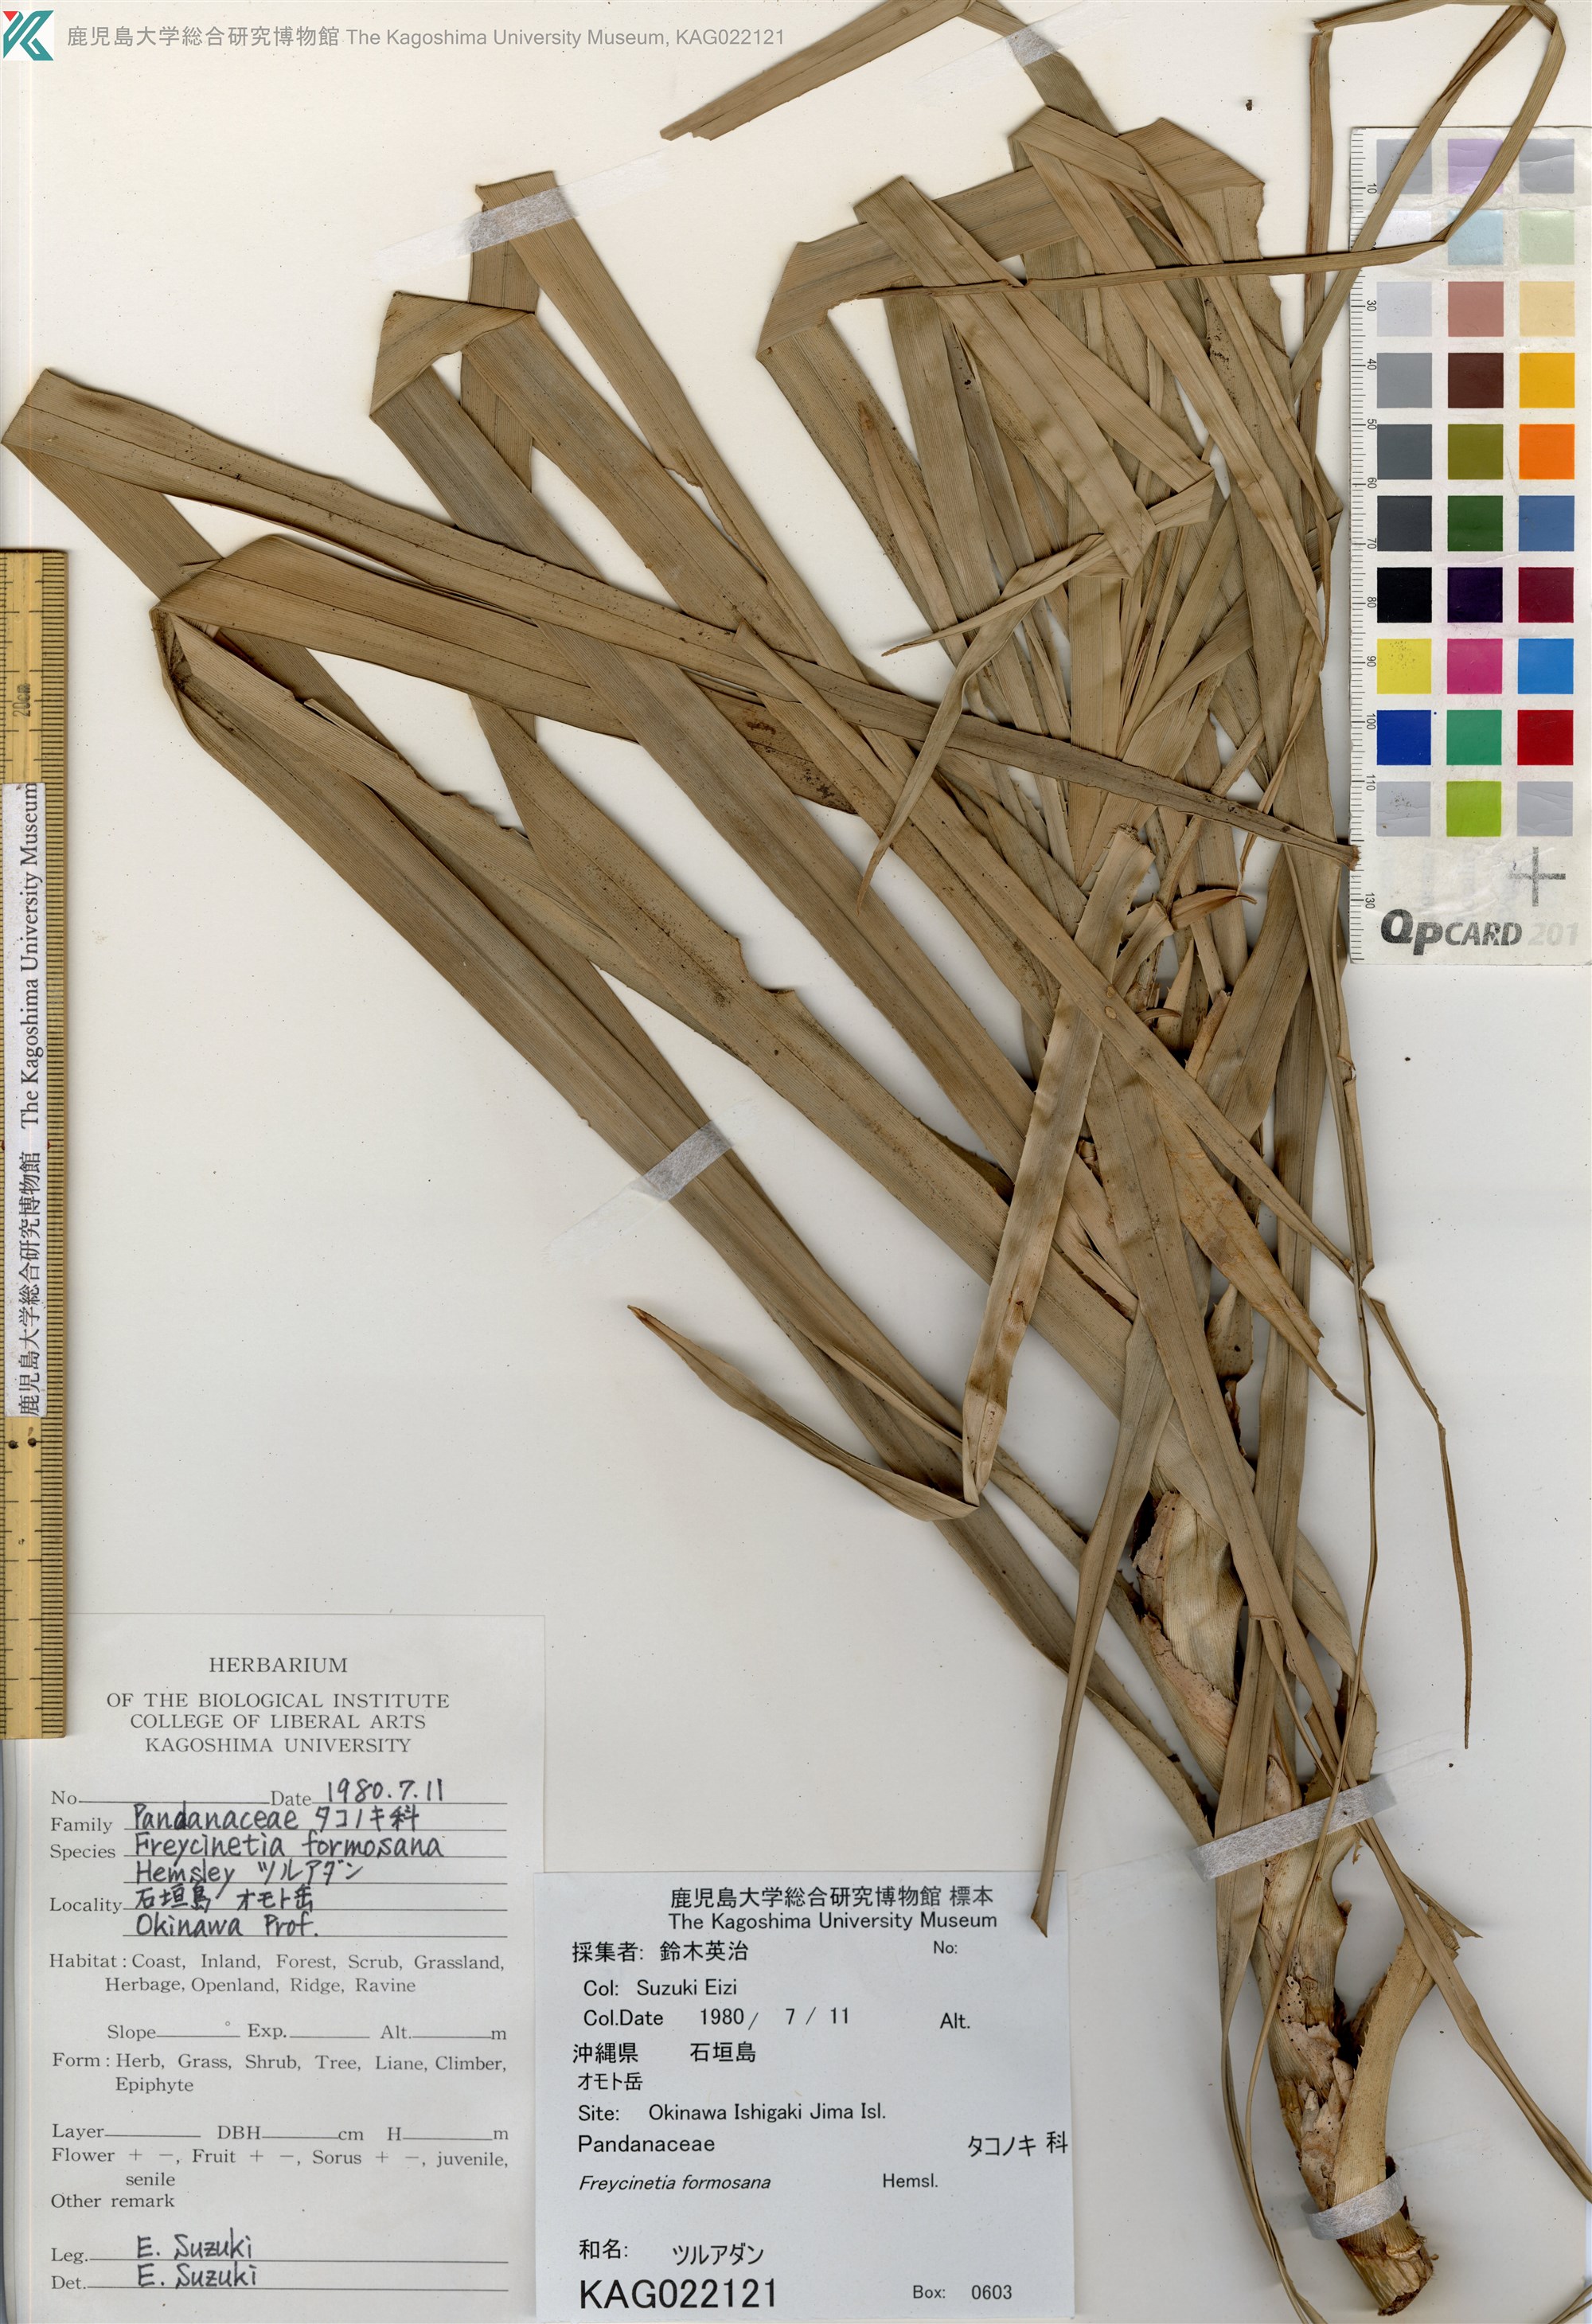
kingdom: Plantae
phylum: Tracheophyta
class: Liliopsida
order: Pandanales
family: Pandanaceae
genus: Freycinetia
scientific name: Freycinetia formosana
